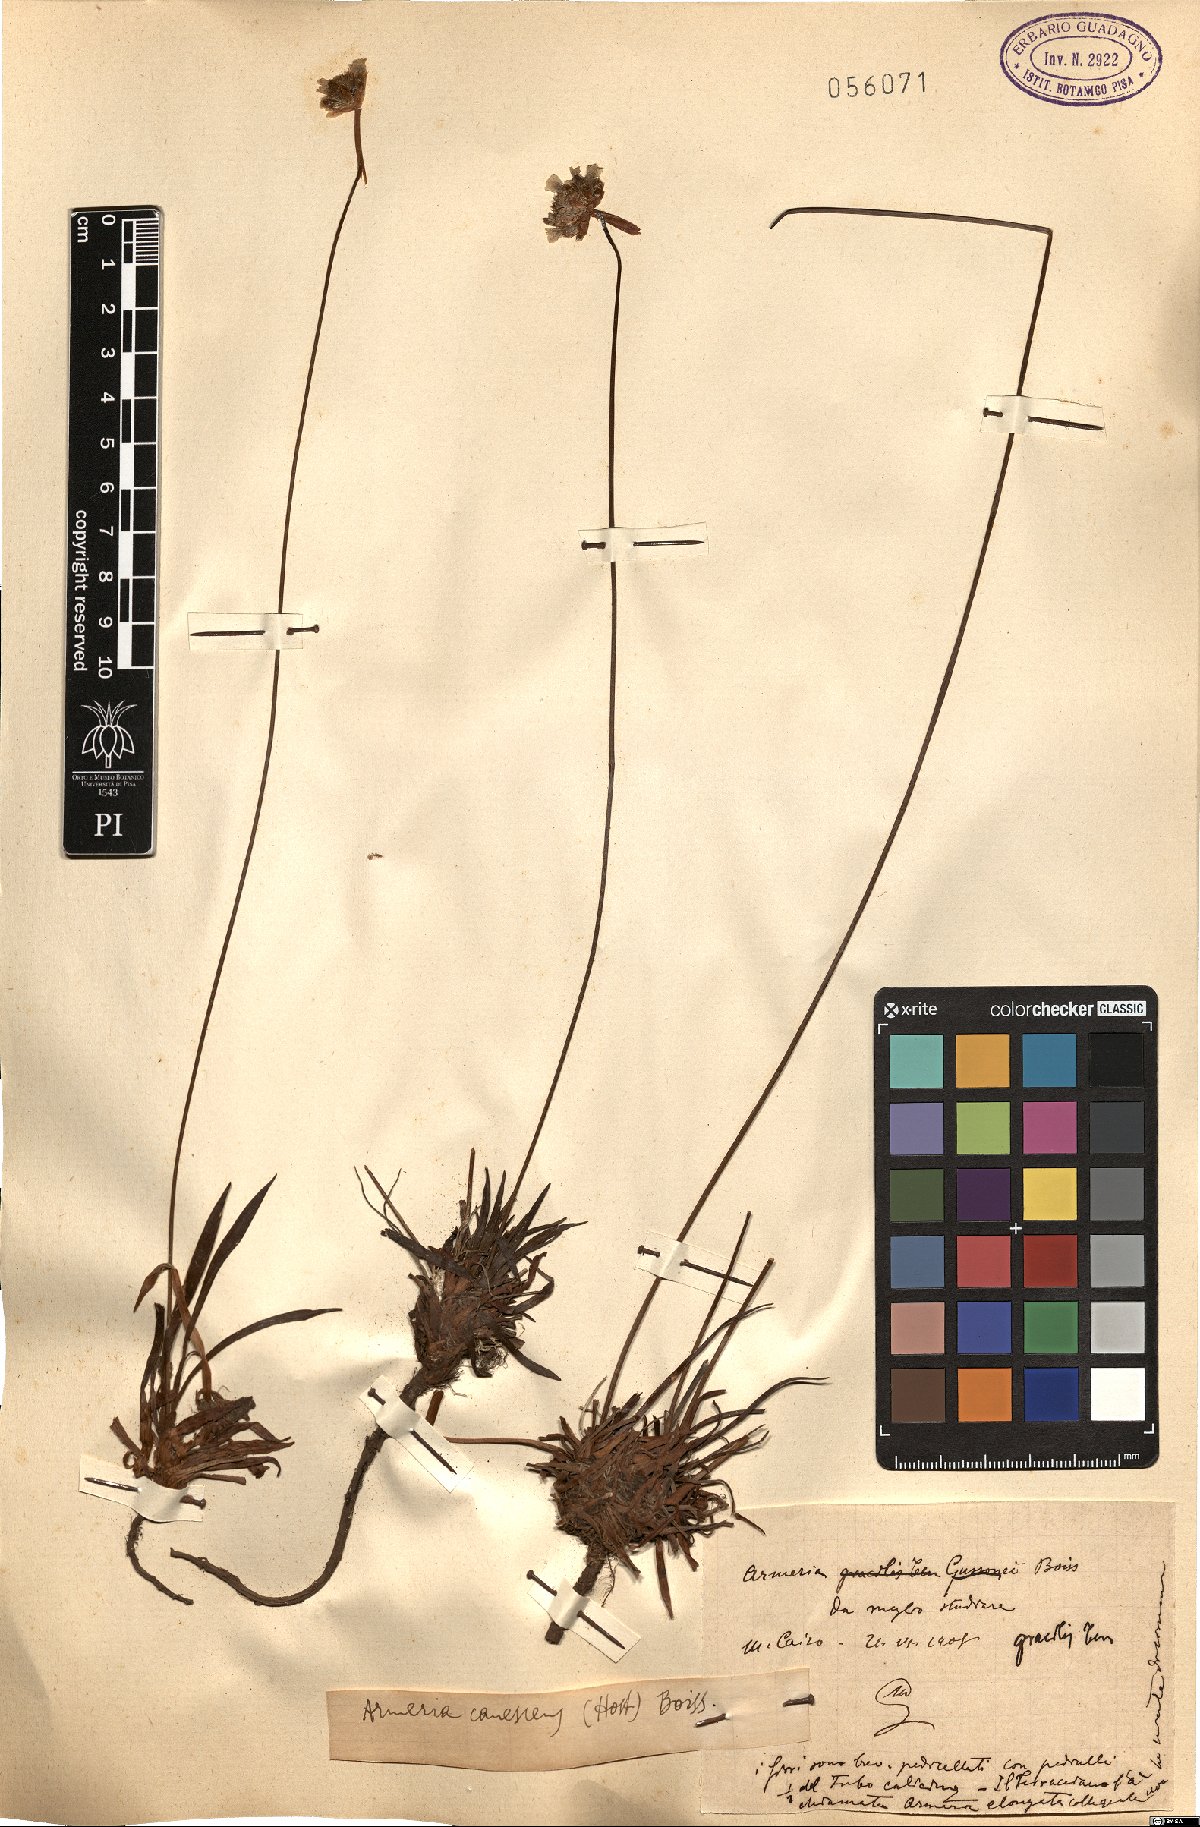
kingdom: Plantae
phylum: Tracheophyta
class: Magnoliopsida
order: Caryophyllales
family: Plumbaginaceae
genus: Armeria
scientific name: Armeria canescens
